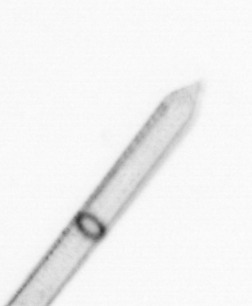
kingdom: Chromista
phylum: Ochrophyta
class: Bacillariophyceae
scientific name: Bacillariophyceae
